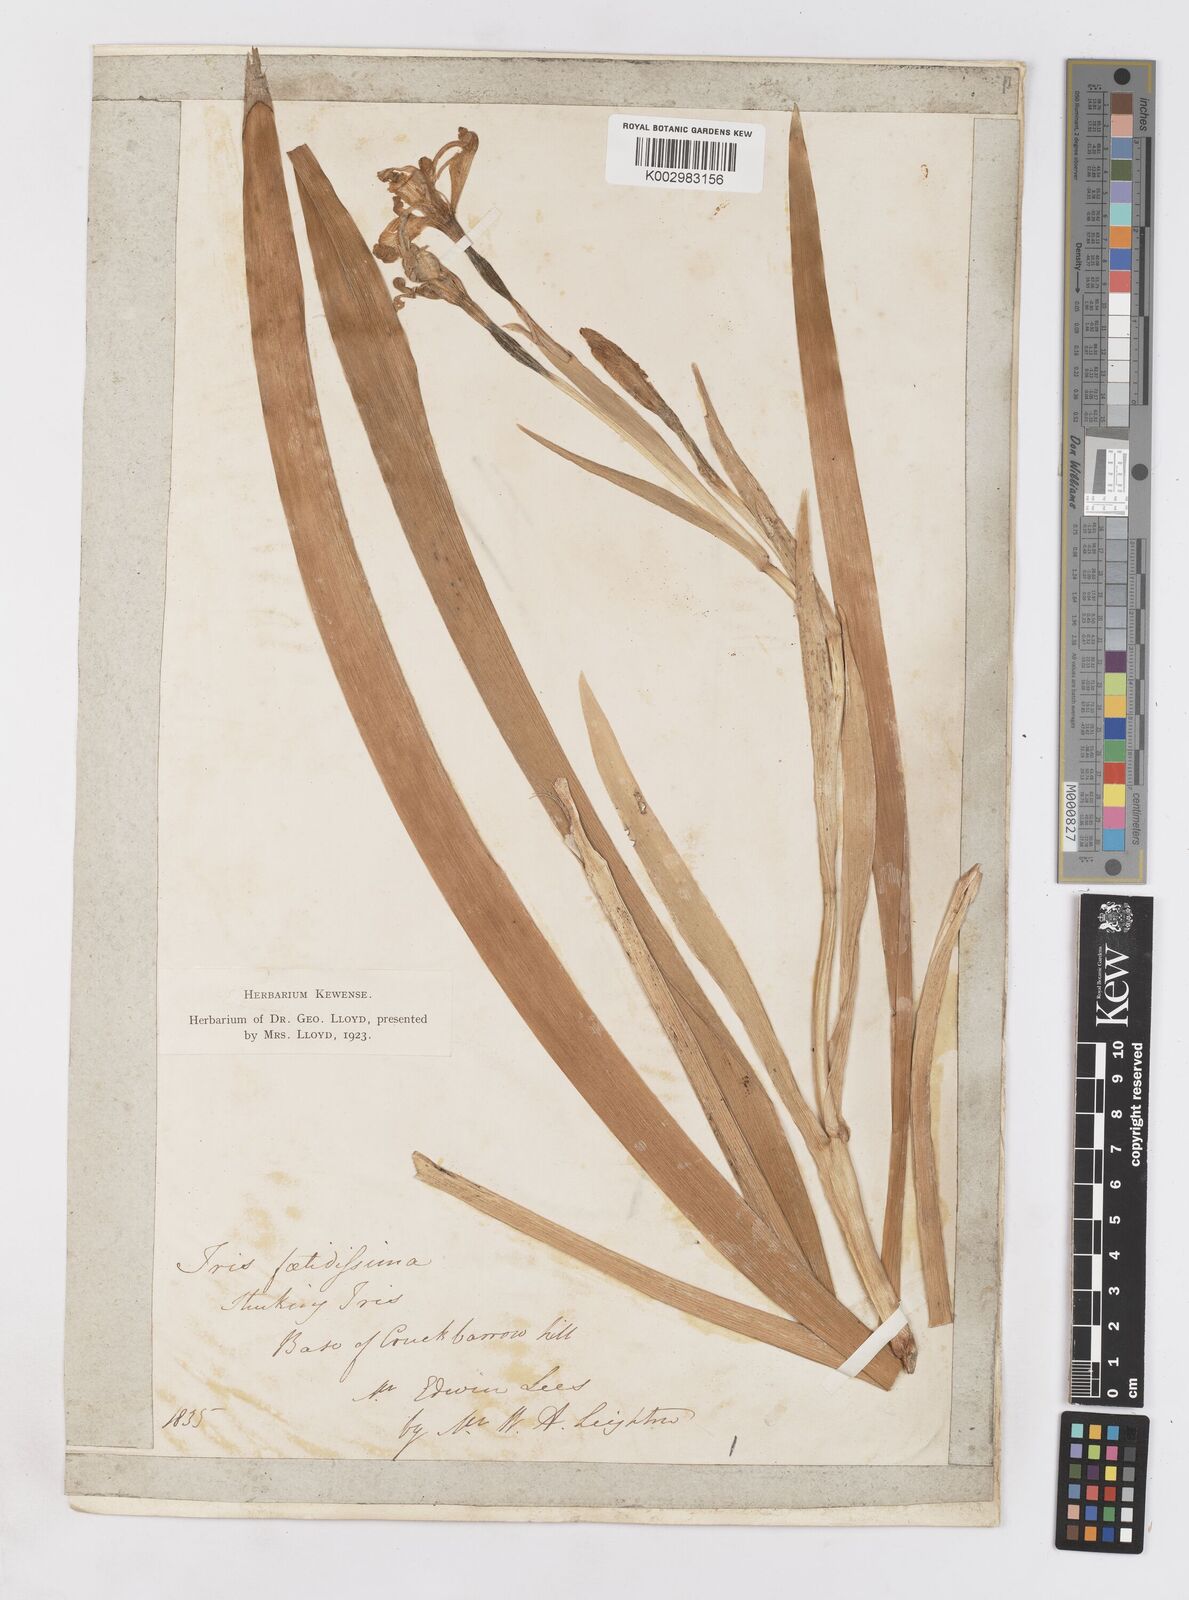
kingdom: Plantae
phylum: Tracheophyta
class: Liliopsida
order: Asparagales
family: Iridaceae
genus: Iris
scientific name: Iris foetidissima
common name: Stinking iris
